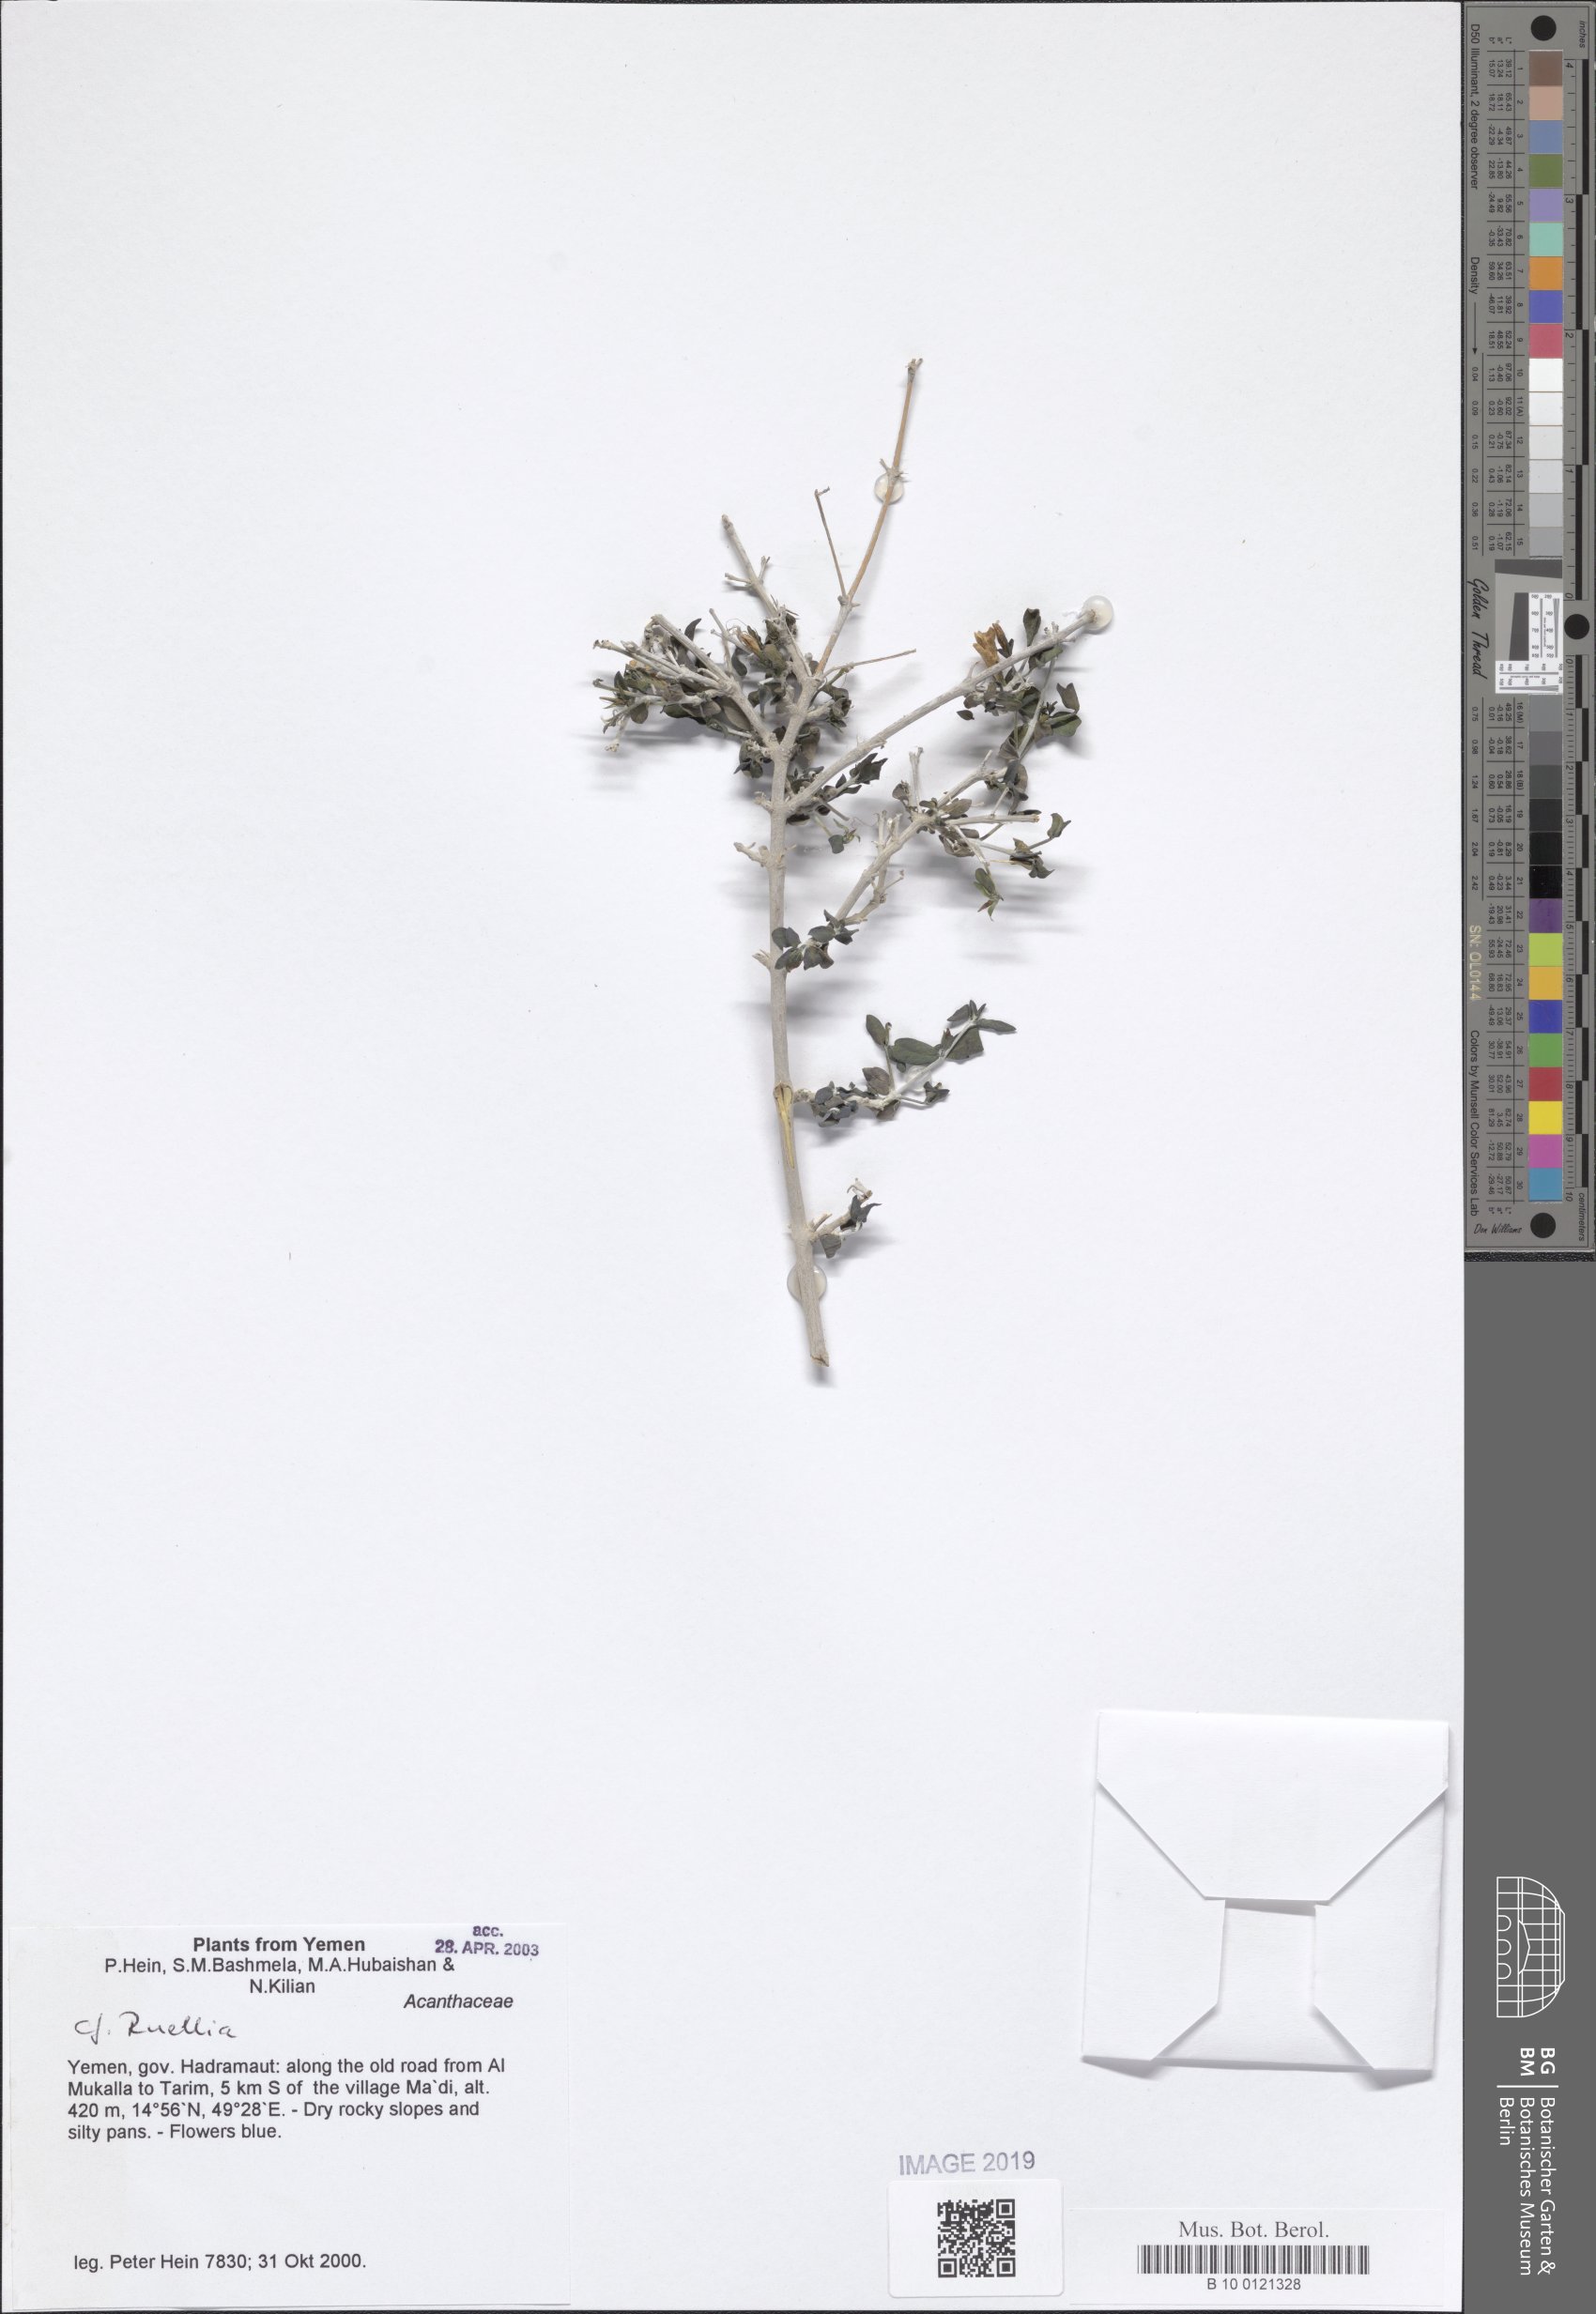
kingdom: Plantae
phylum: Tracheophyta
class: Magnoliopsida
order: Lamiales
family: Acanthaceae
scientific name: Acanthaceae
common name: Acanthaceae
